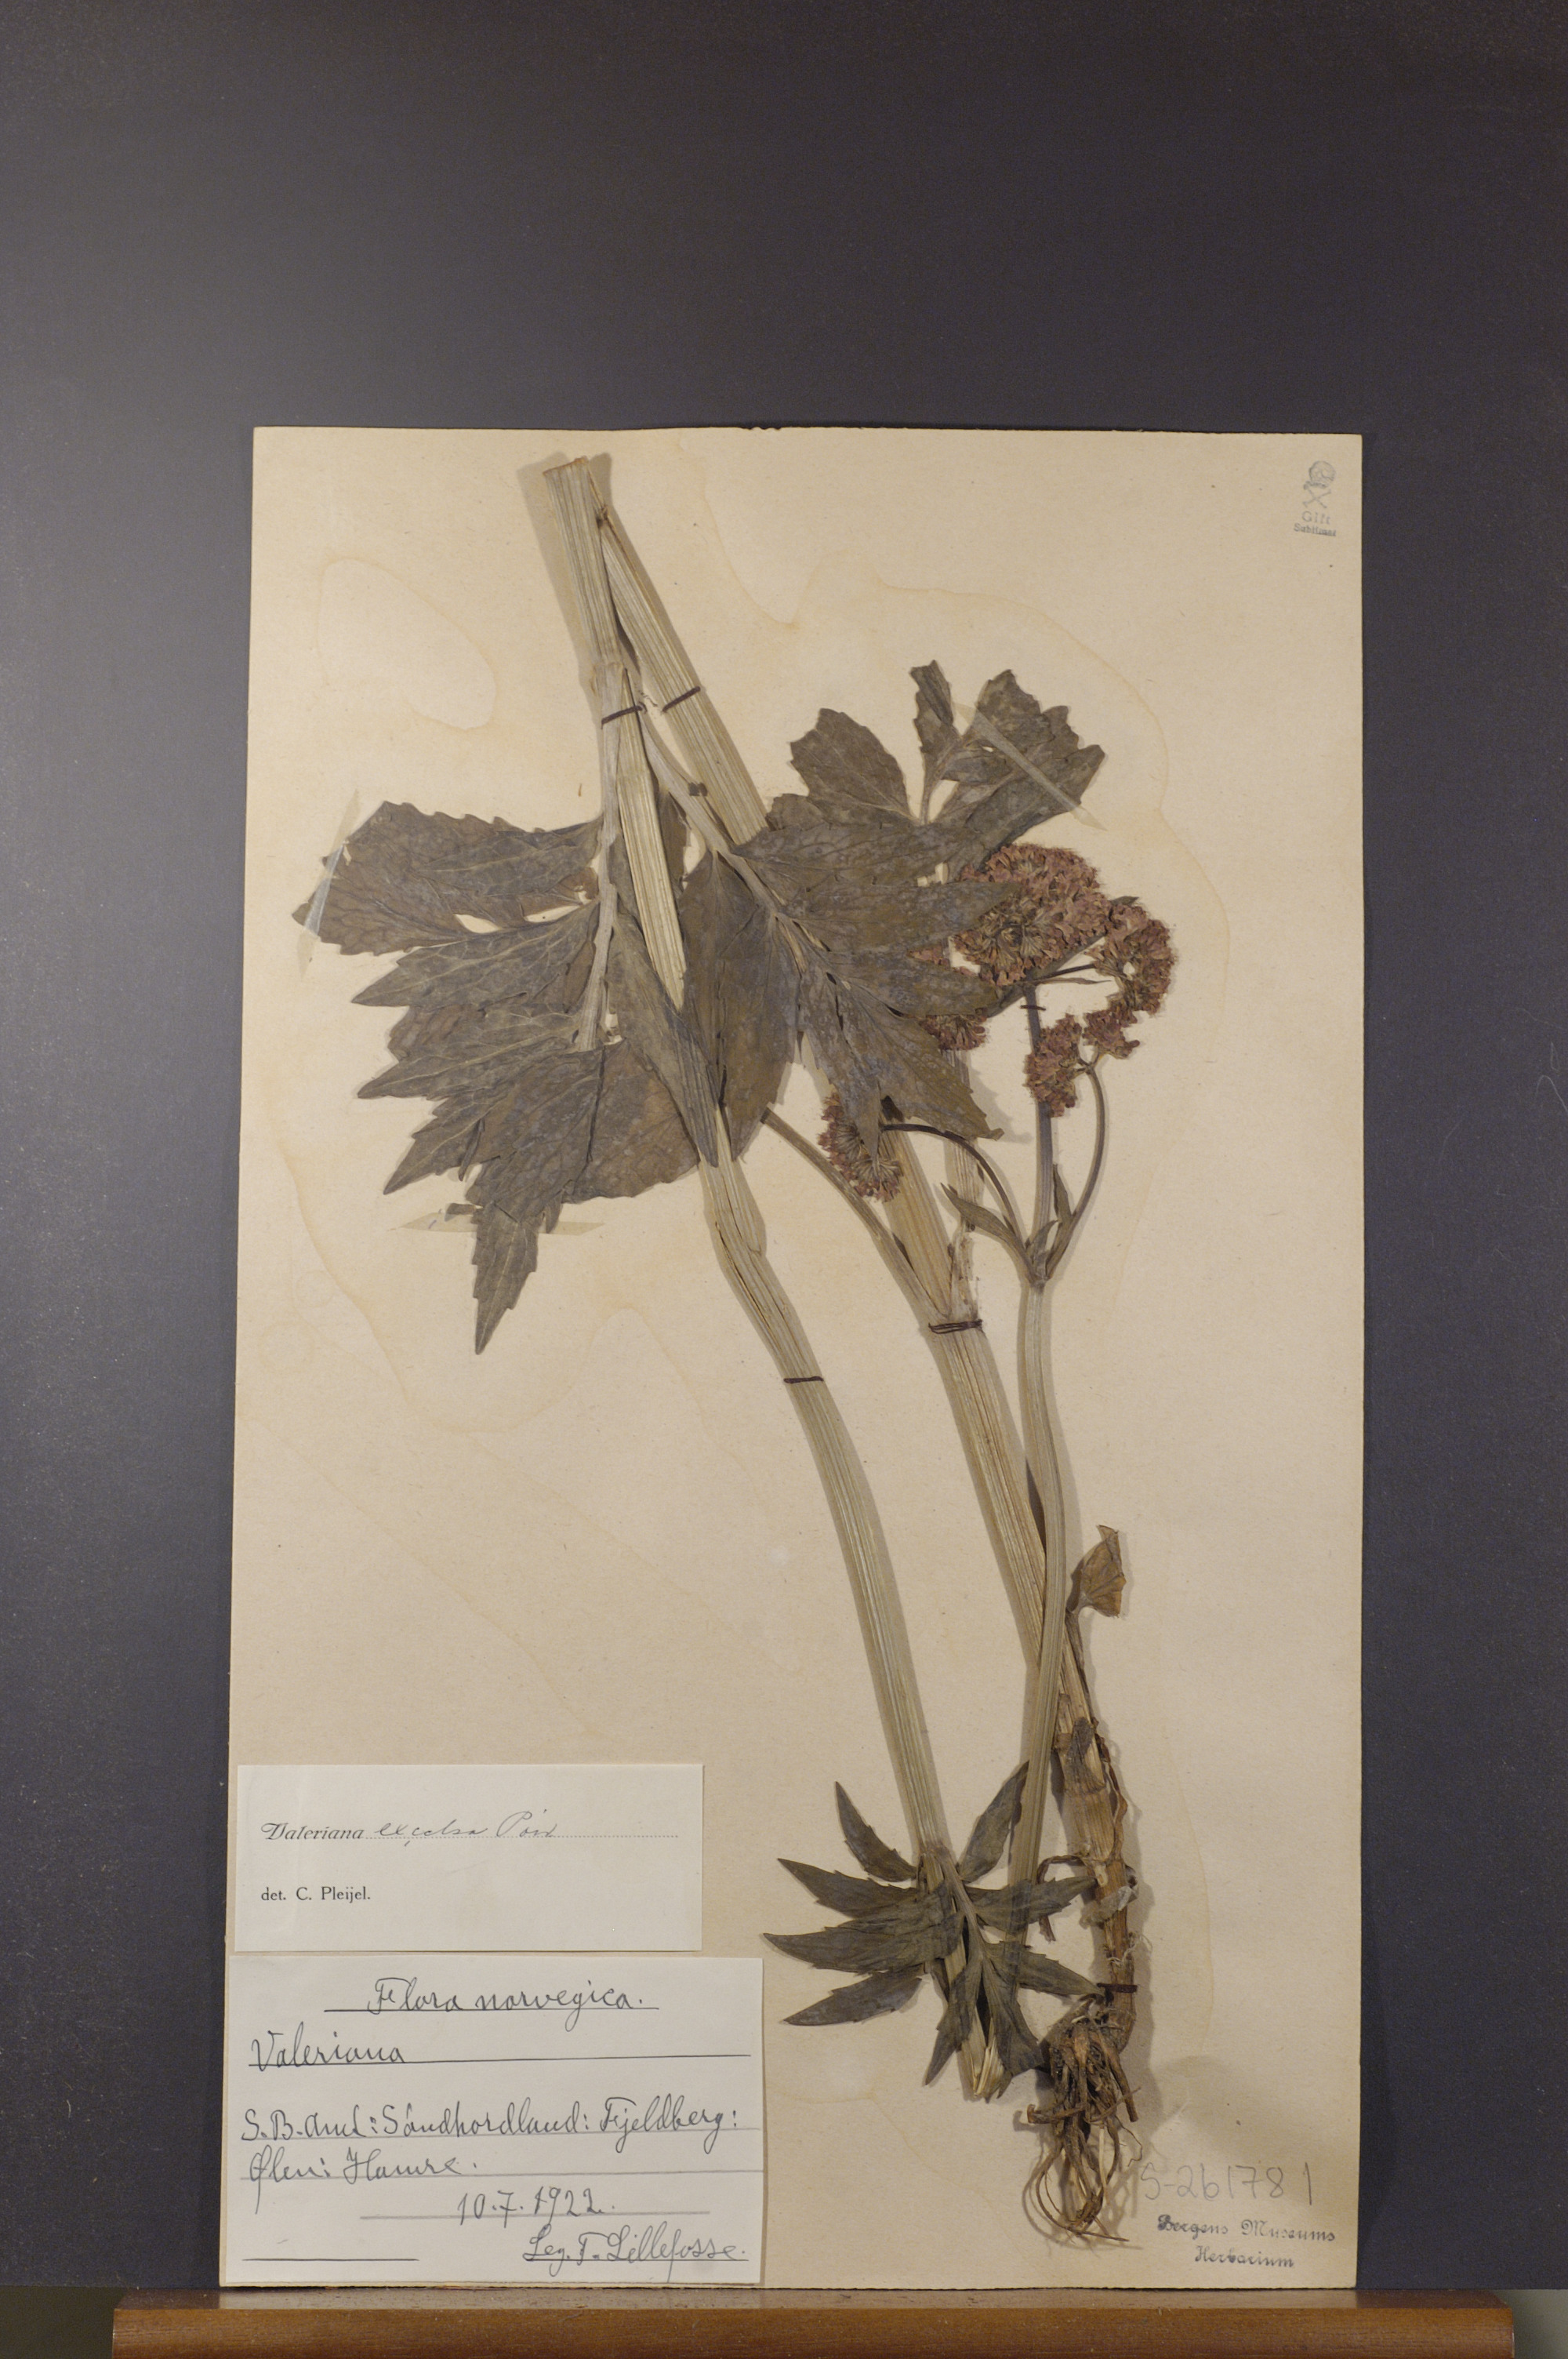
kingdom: Plantae
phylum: Tracheophyta
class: Magnoliopsida
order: Dipsacales
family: Caprifoliaceae
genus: Valeriana
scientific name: Valeriana sambucifolia
